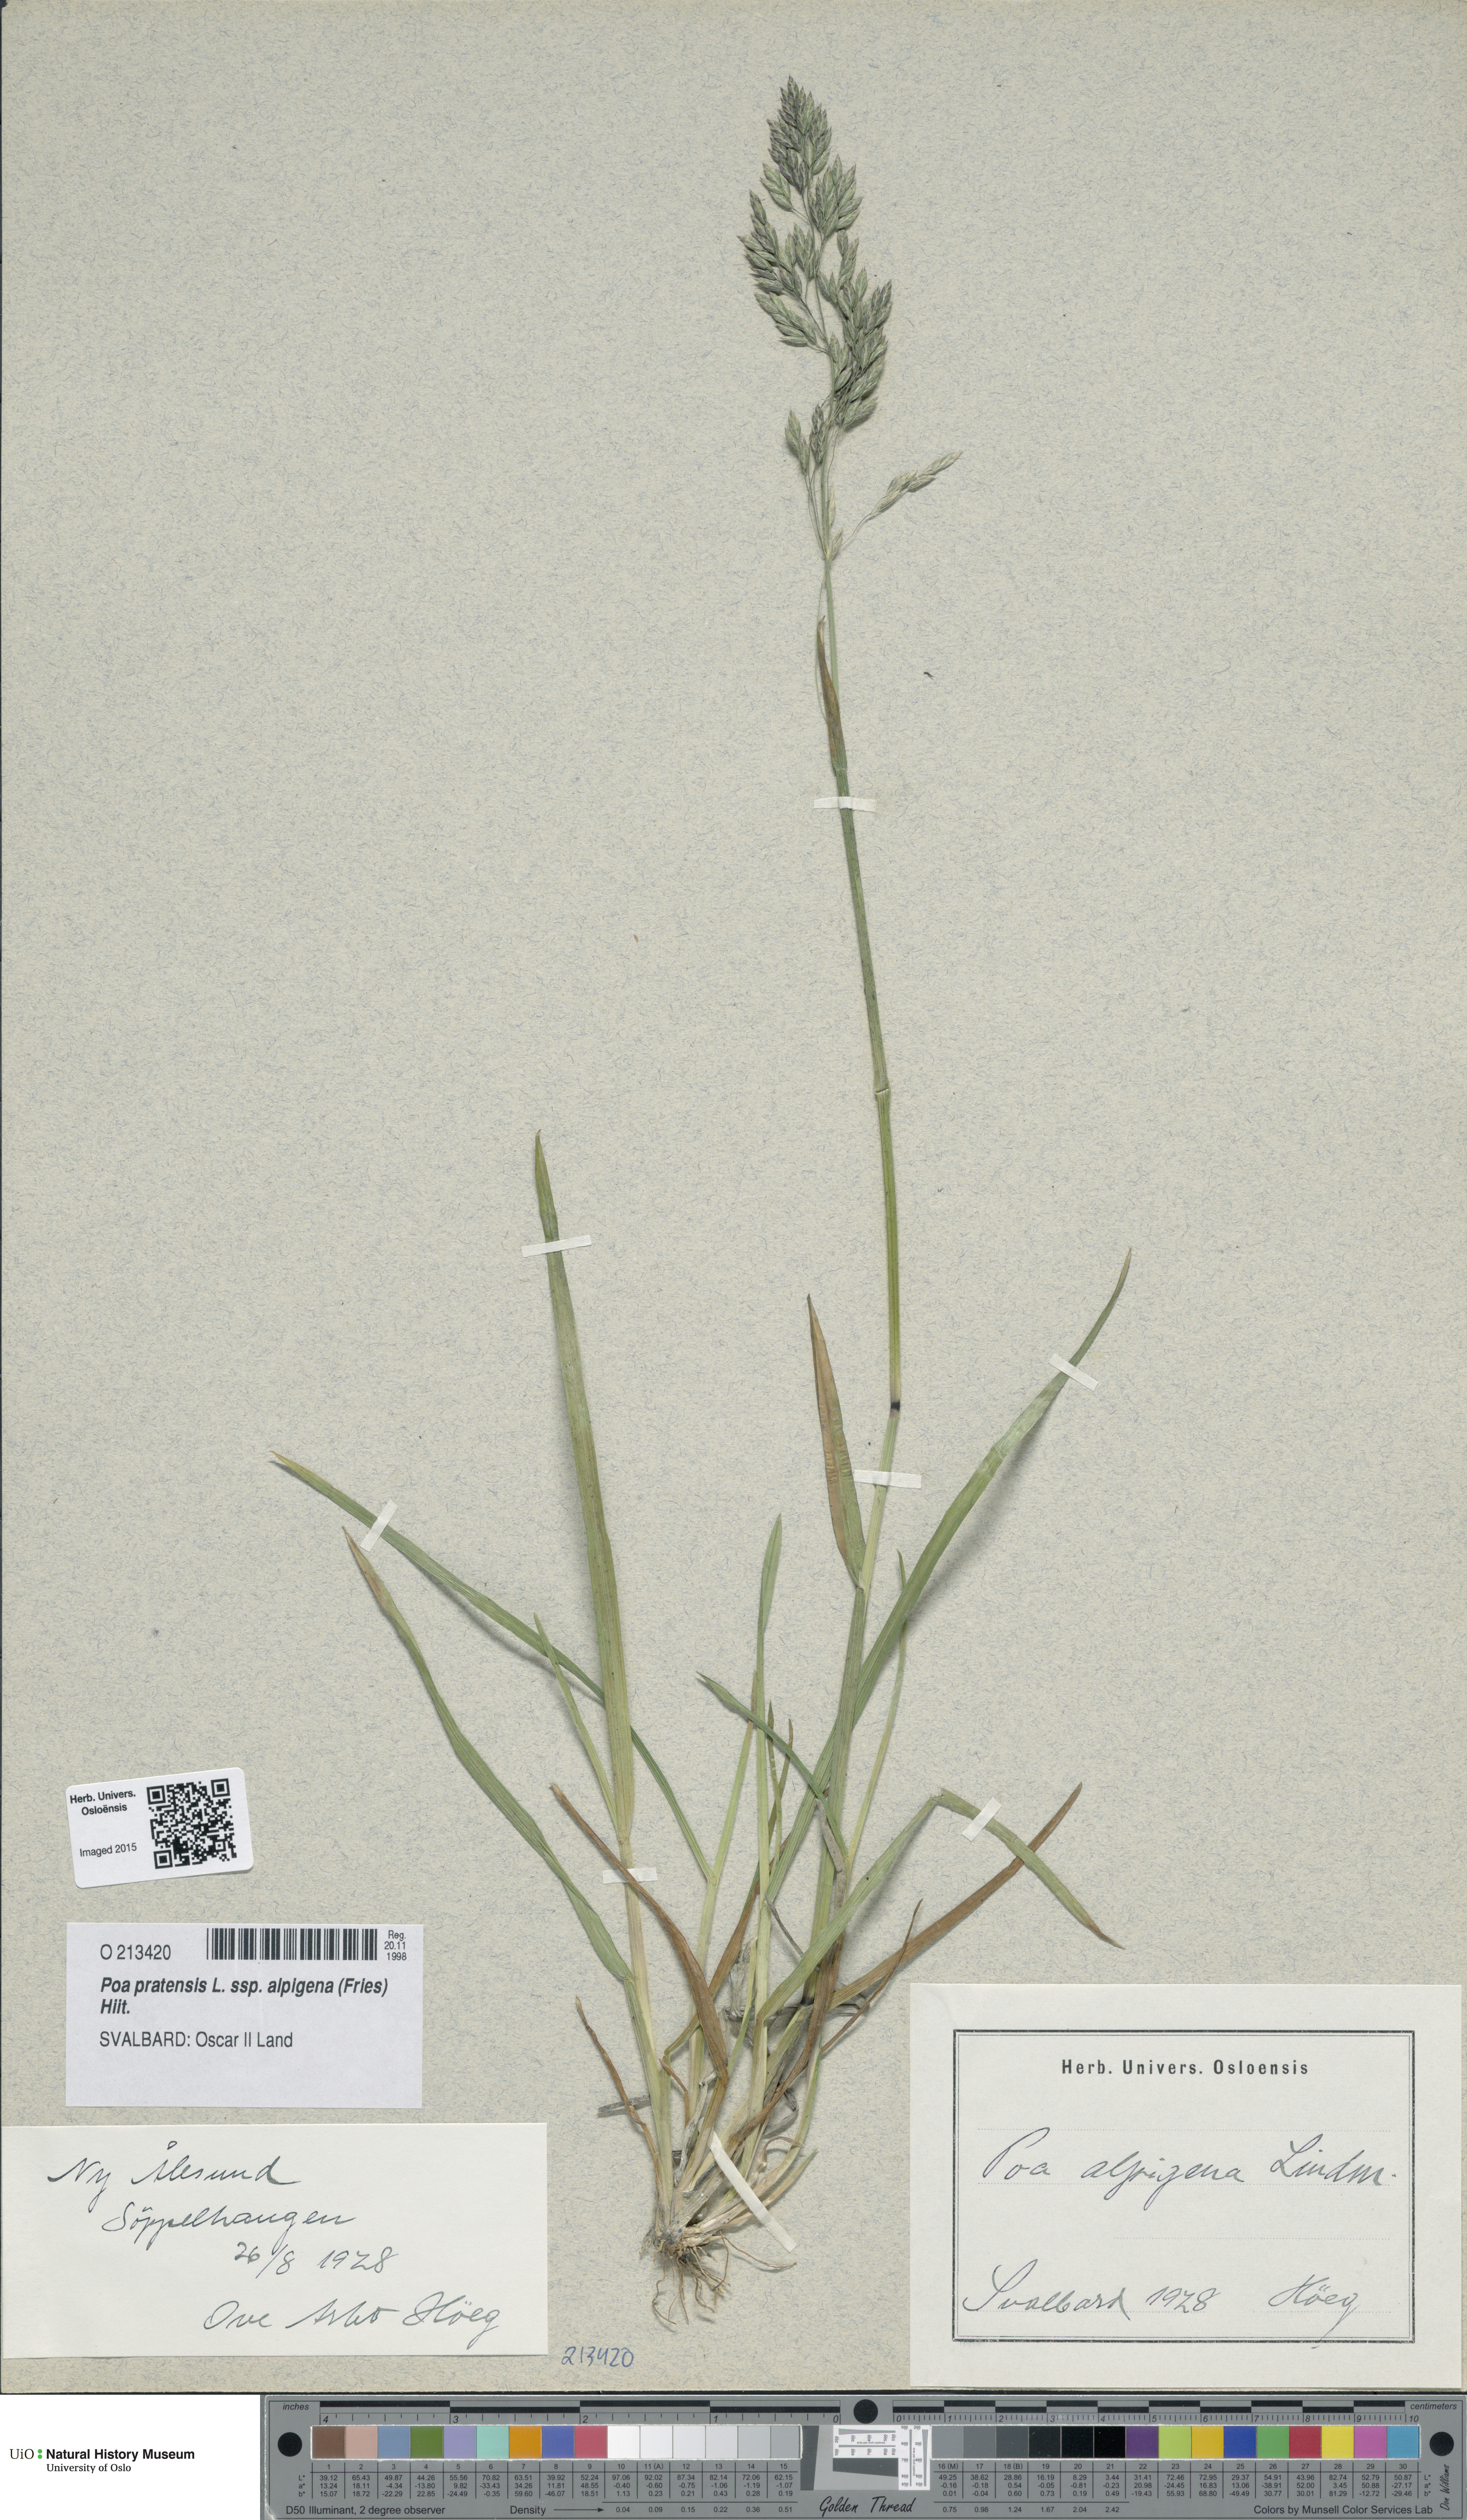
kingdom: Plantae
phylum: Tracheophyta
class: Liliopsida
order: Poales
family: Poaceae
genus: Poa
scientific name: Poa alpigena
